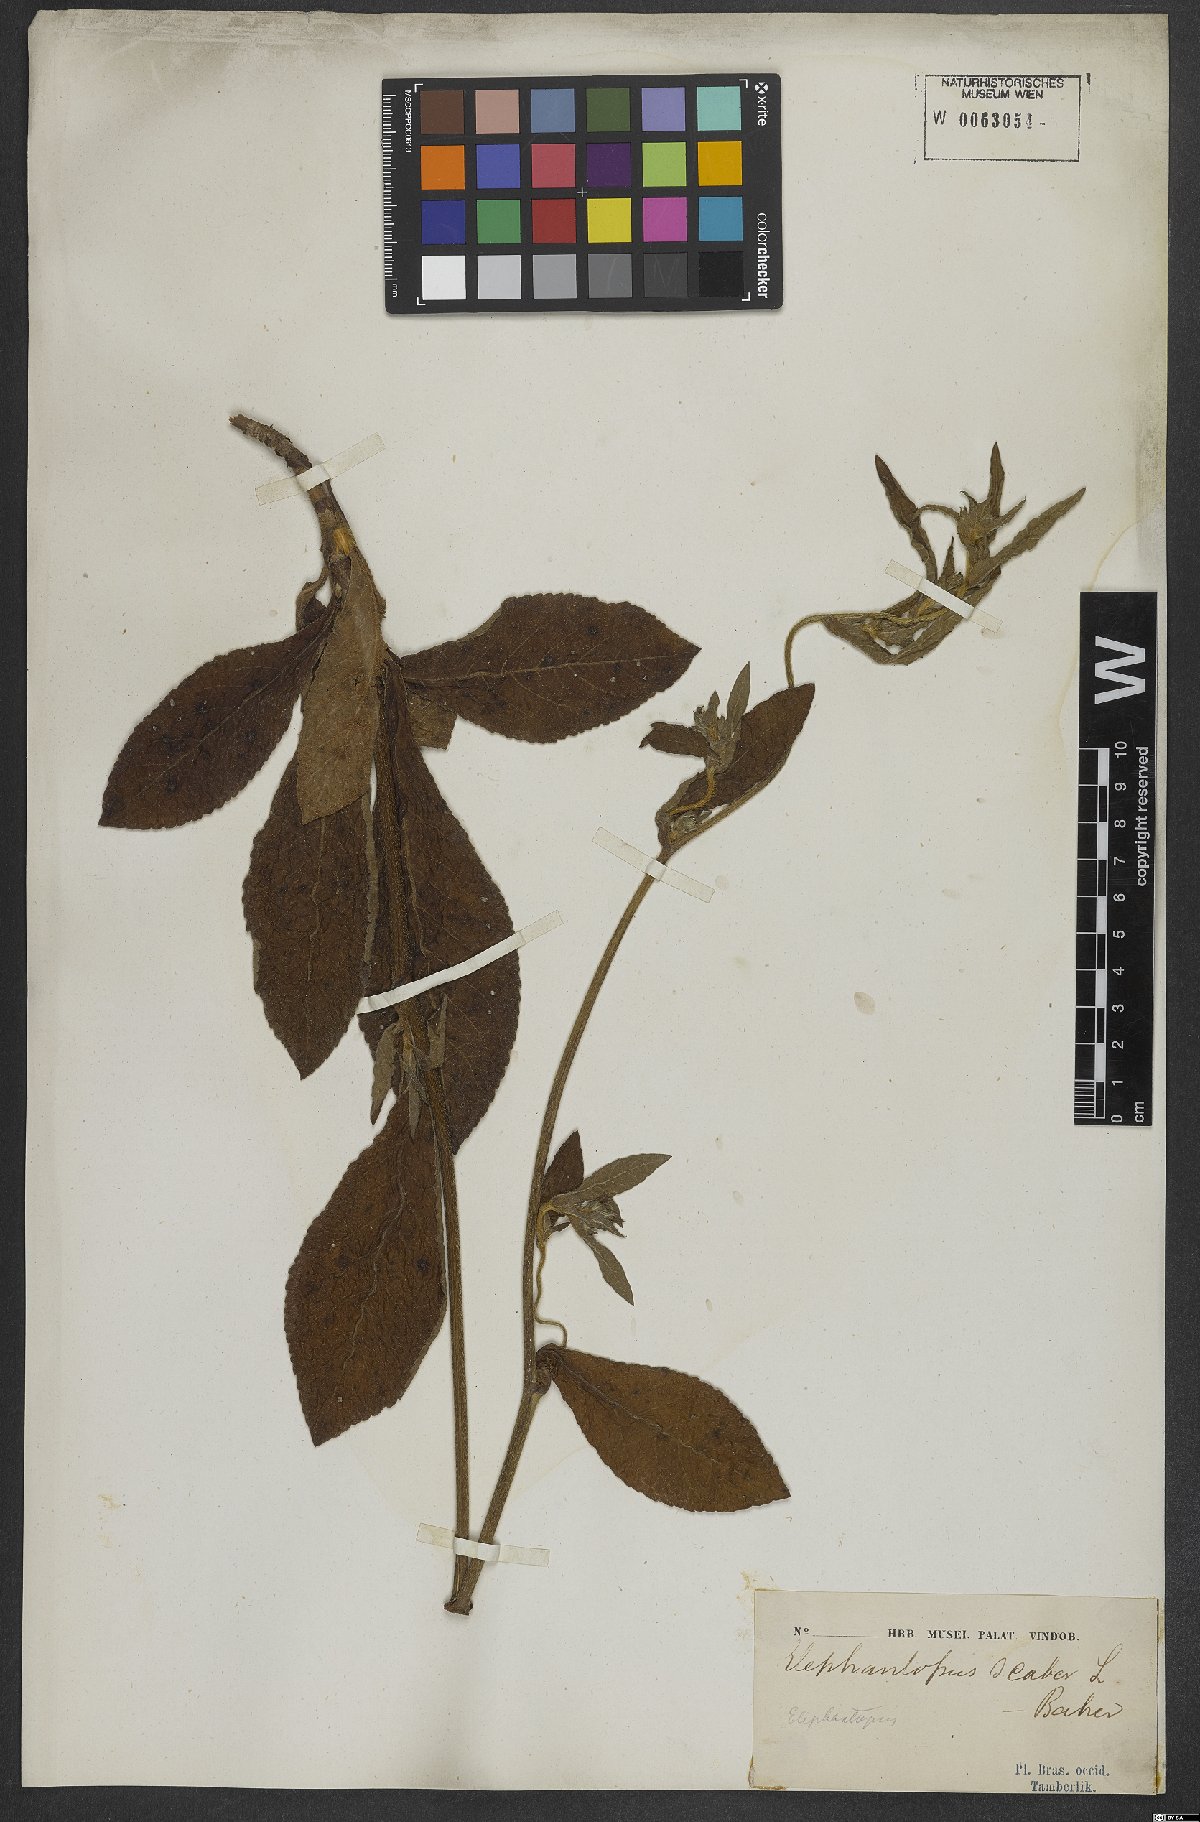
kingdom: Plantae
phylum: Tracheophyta
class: Magnoliopsida
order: Asterales
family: Asteraceae
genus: Elephantopus
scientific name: Elephantopus scaber
